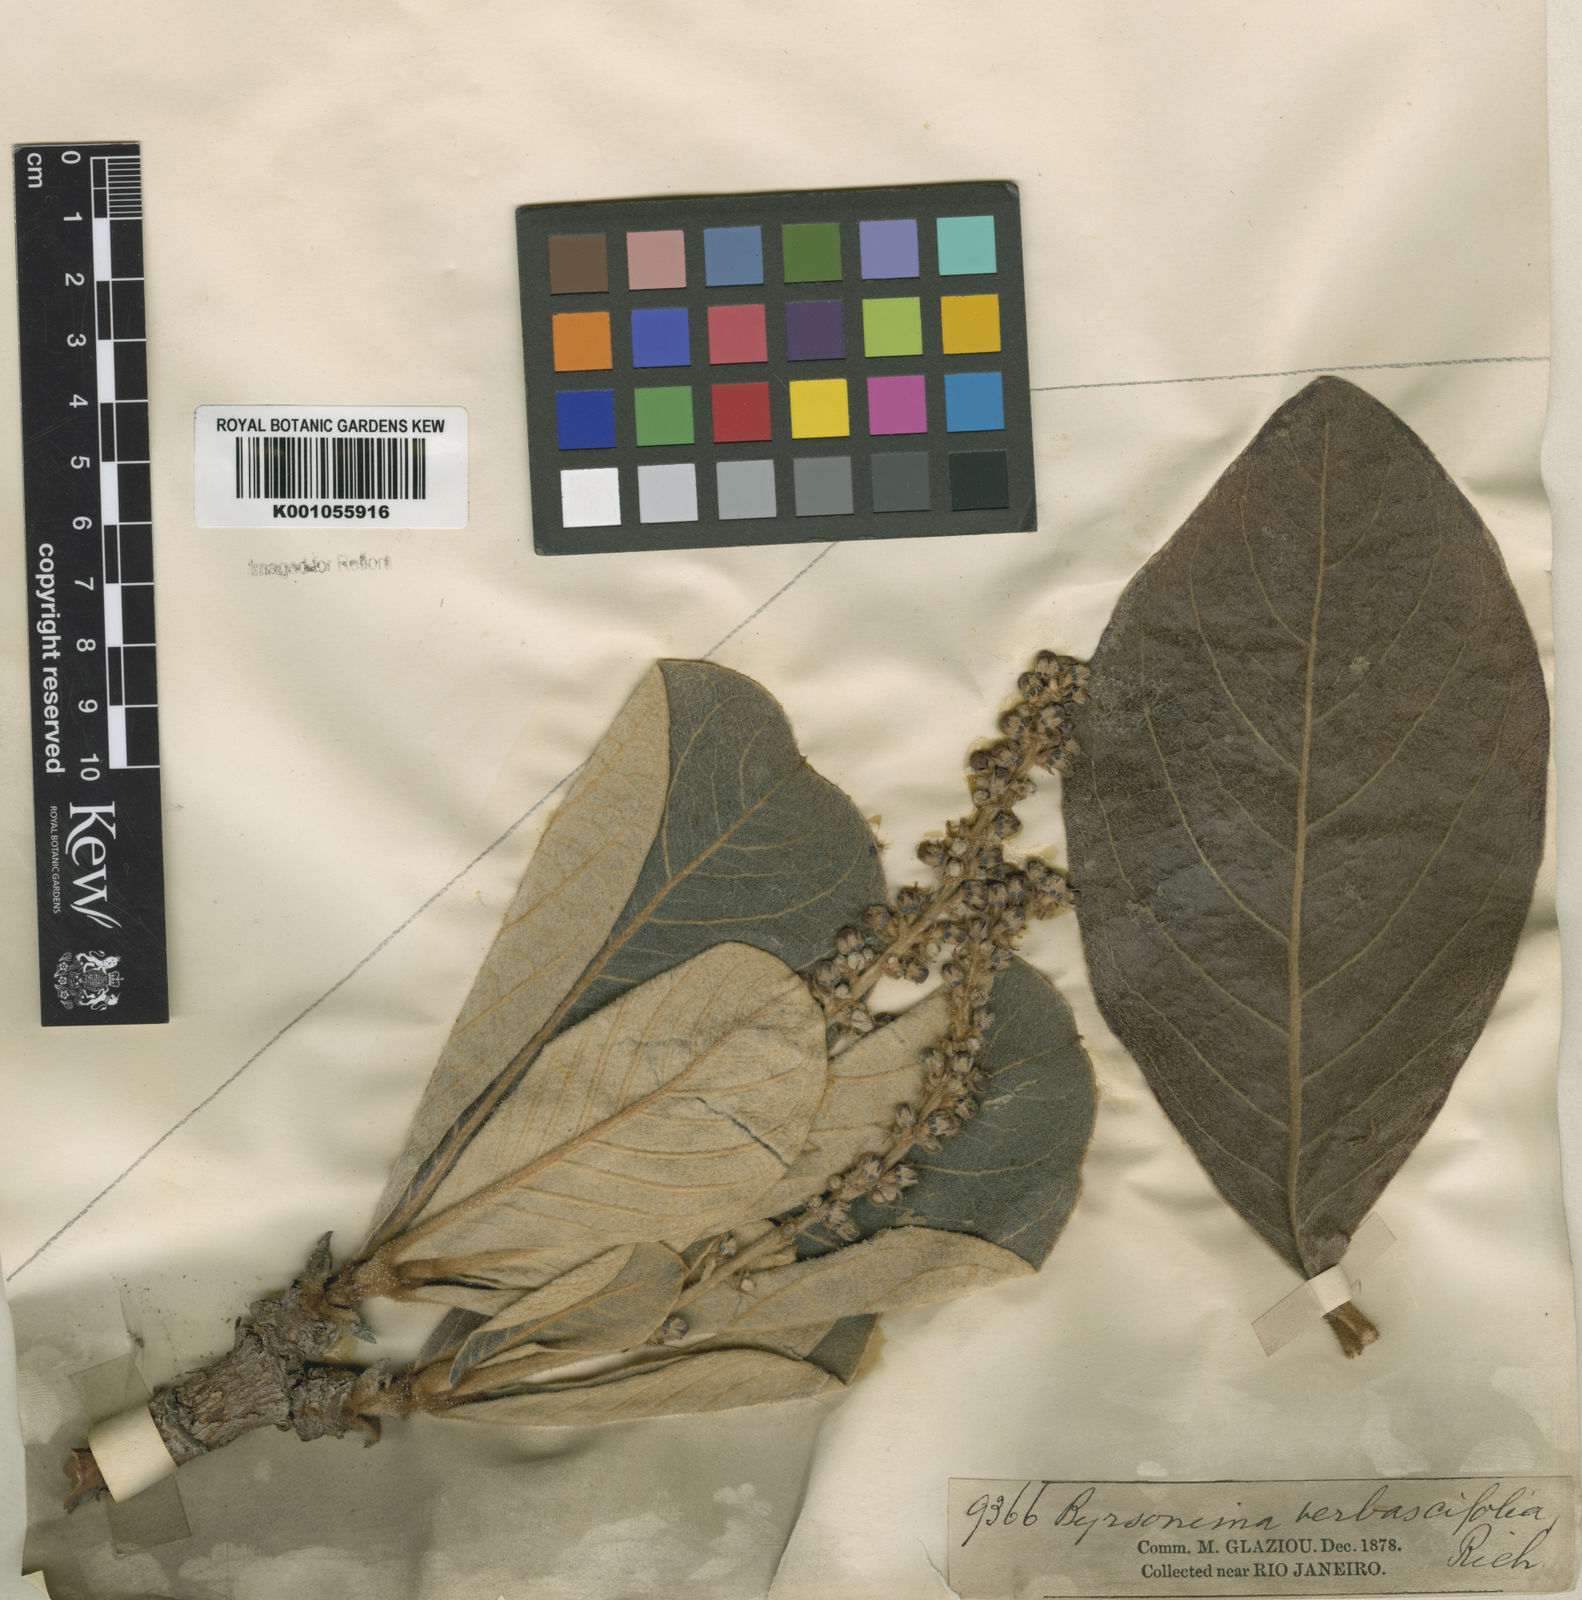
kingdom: Plantae
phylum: Tracheophyta
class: Magnoliopsida
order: Malpighiales
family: Malpighiaceae
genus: Byrsonima
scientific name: Byrsonima verbascifolia
